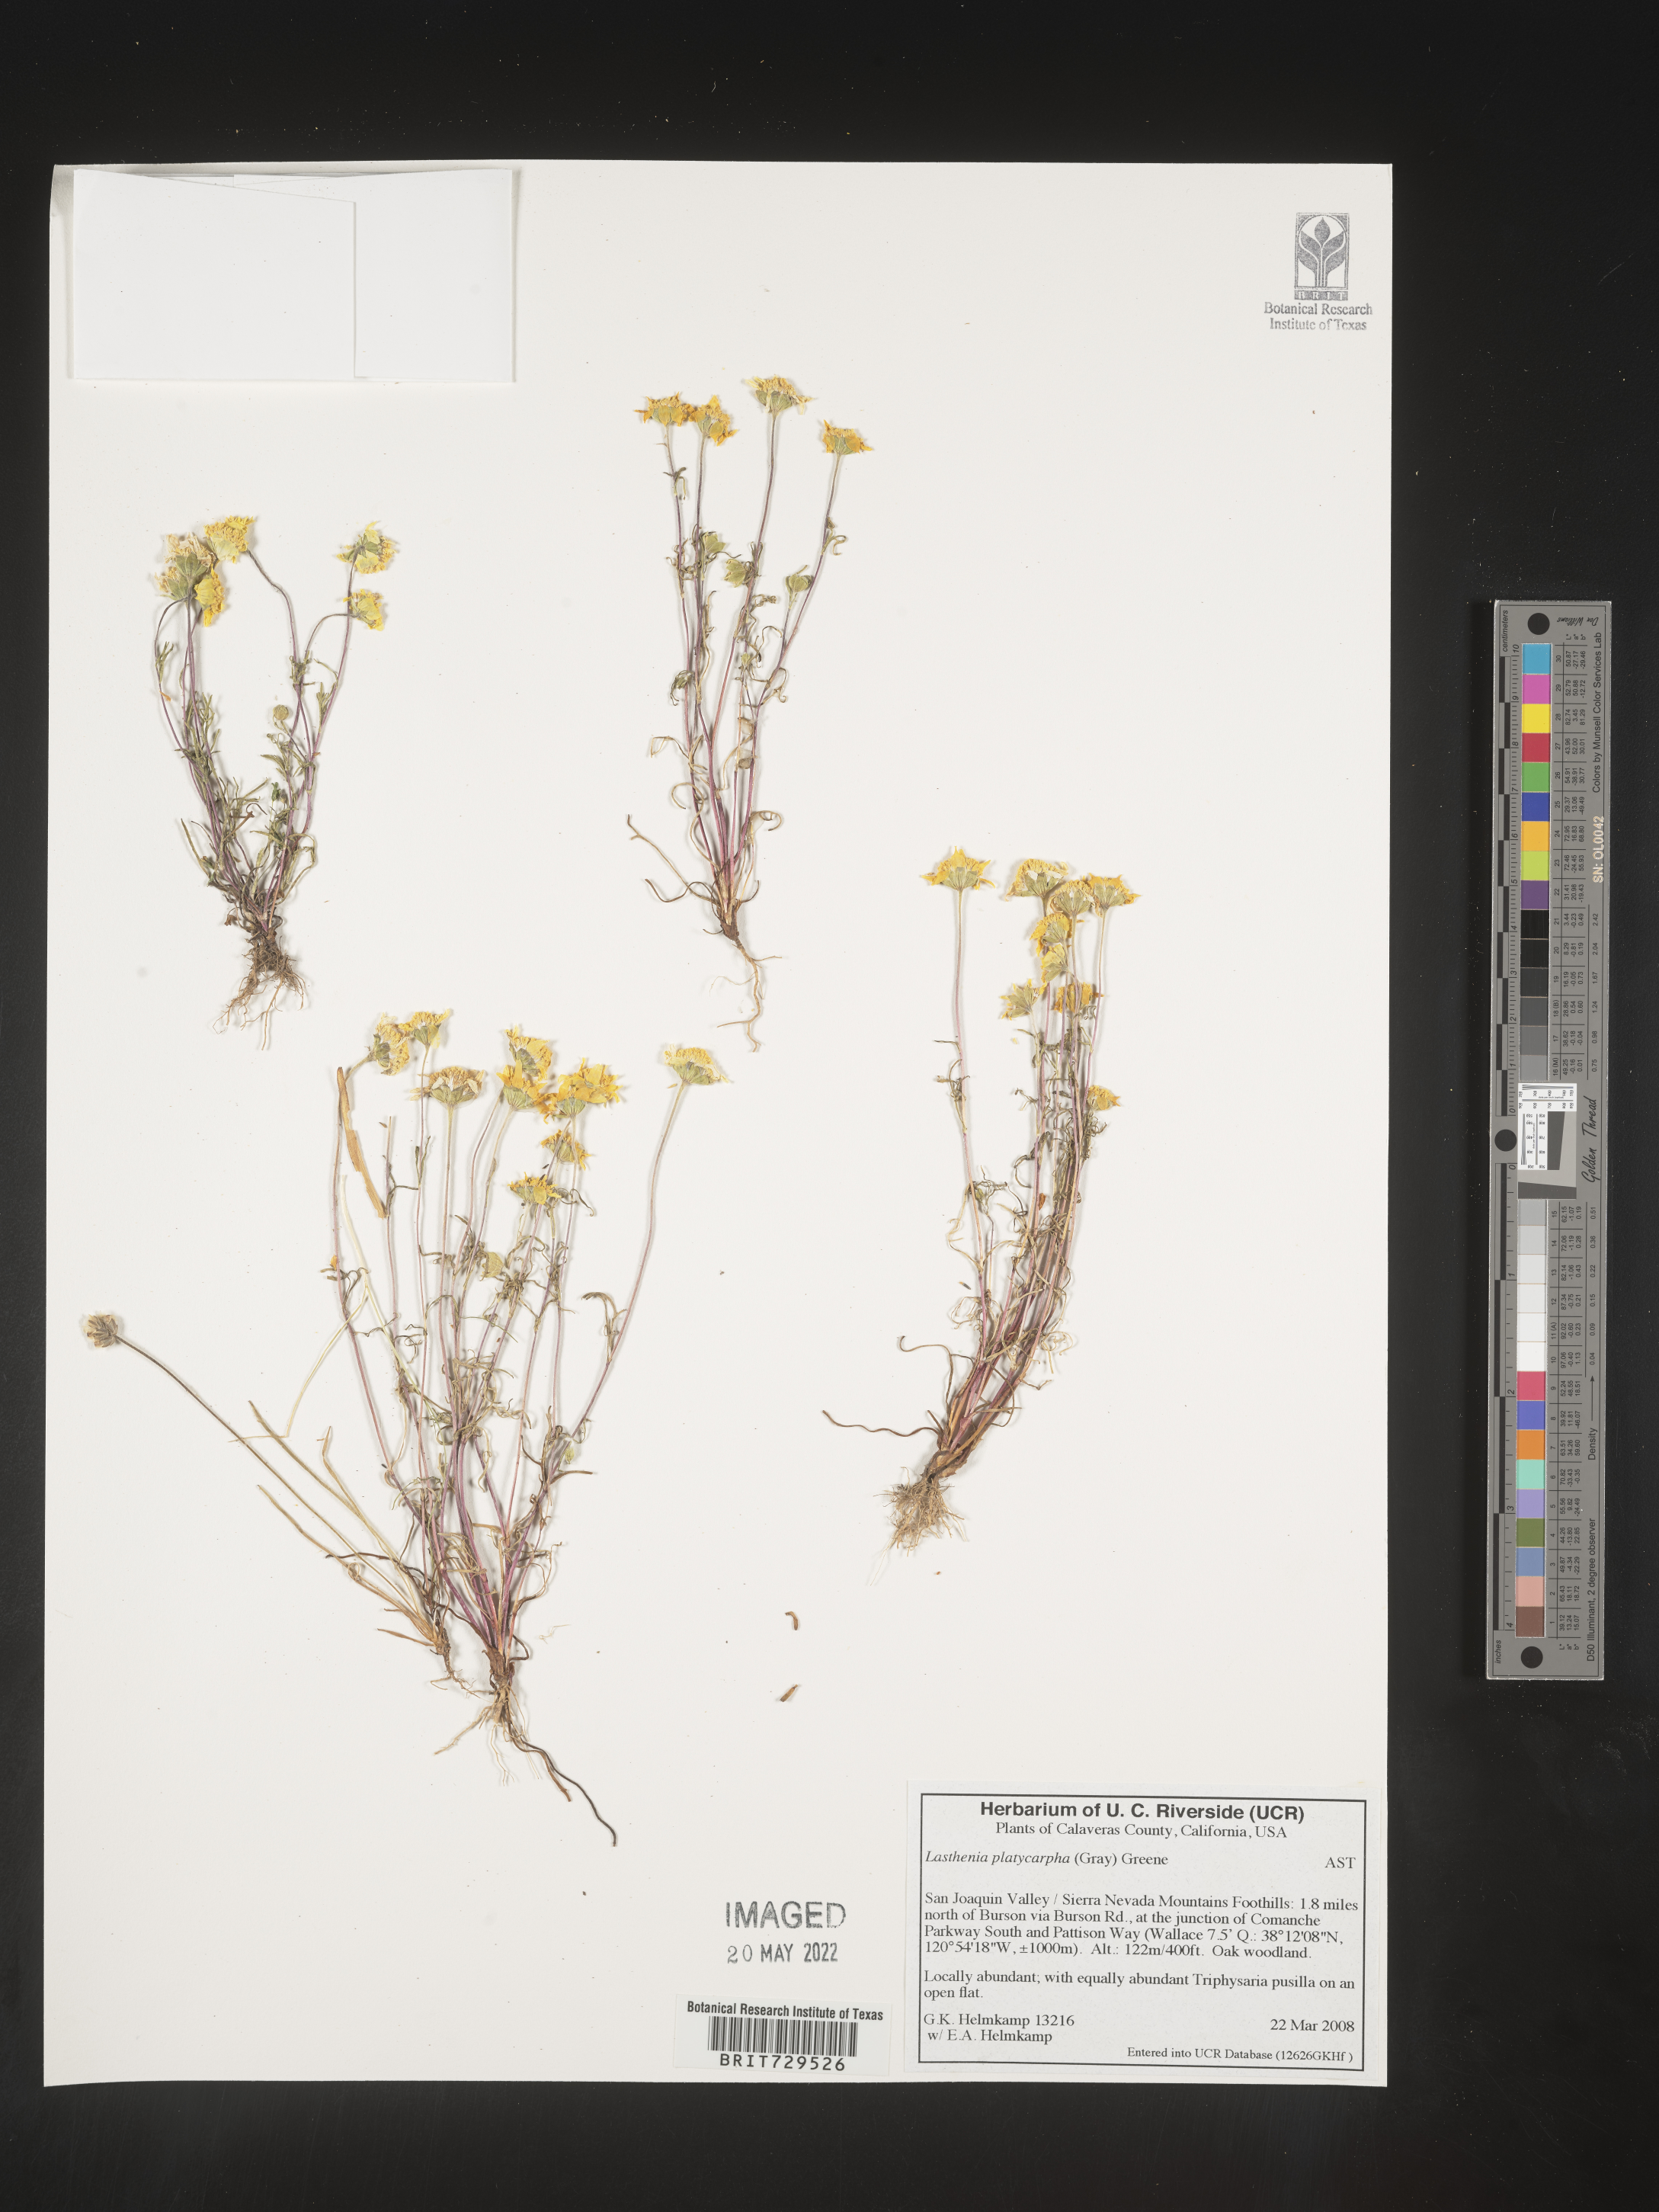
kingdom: Plantae
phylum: Tracheophyta
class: Magnoliopsida
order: Asterales
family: Asteraceae
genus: Lasthenia
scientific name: Lasthenia
